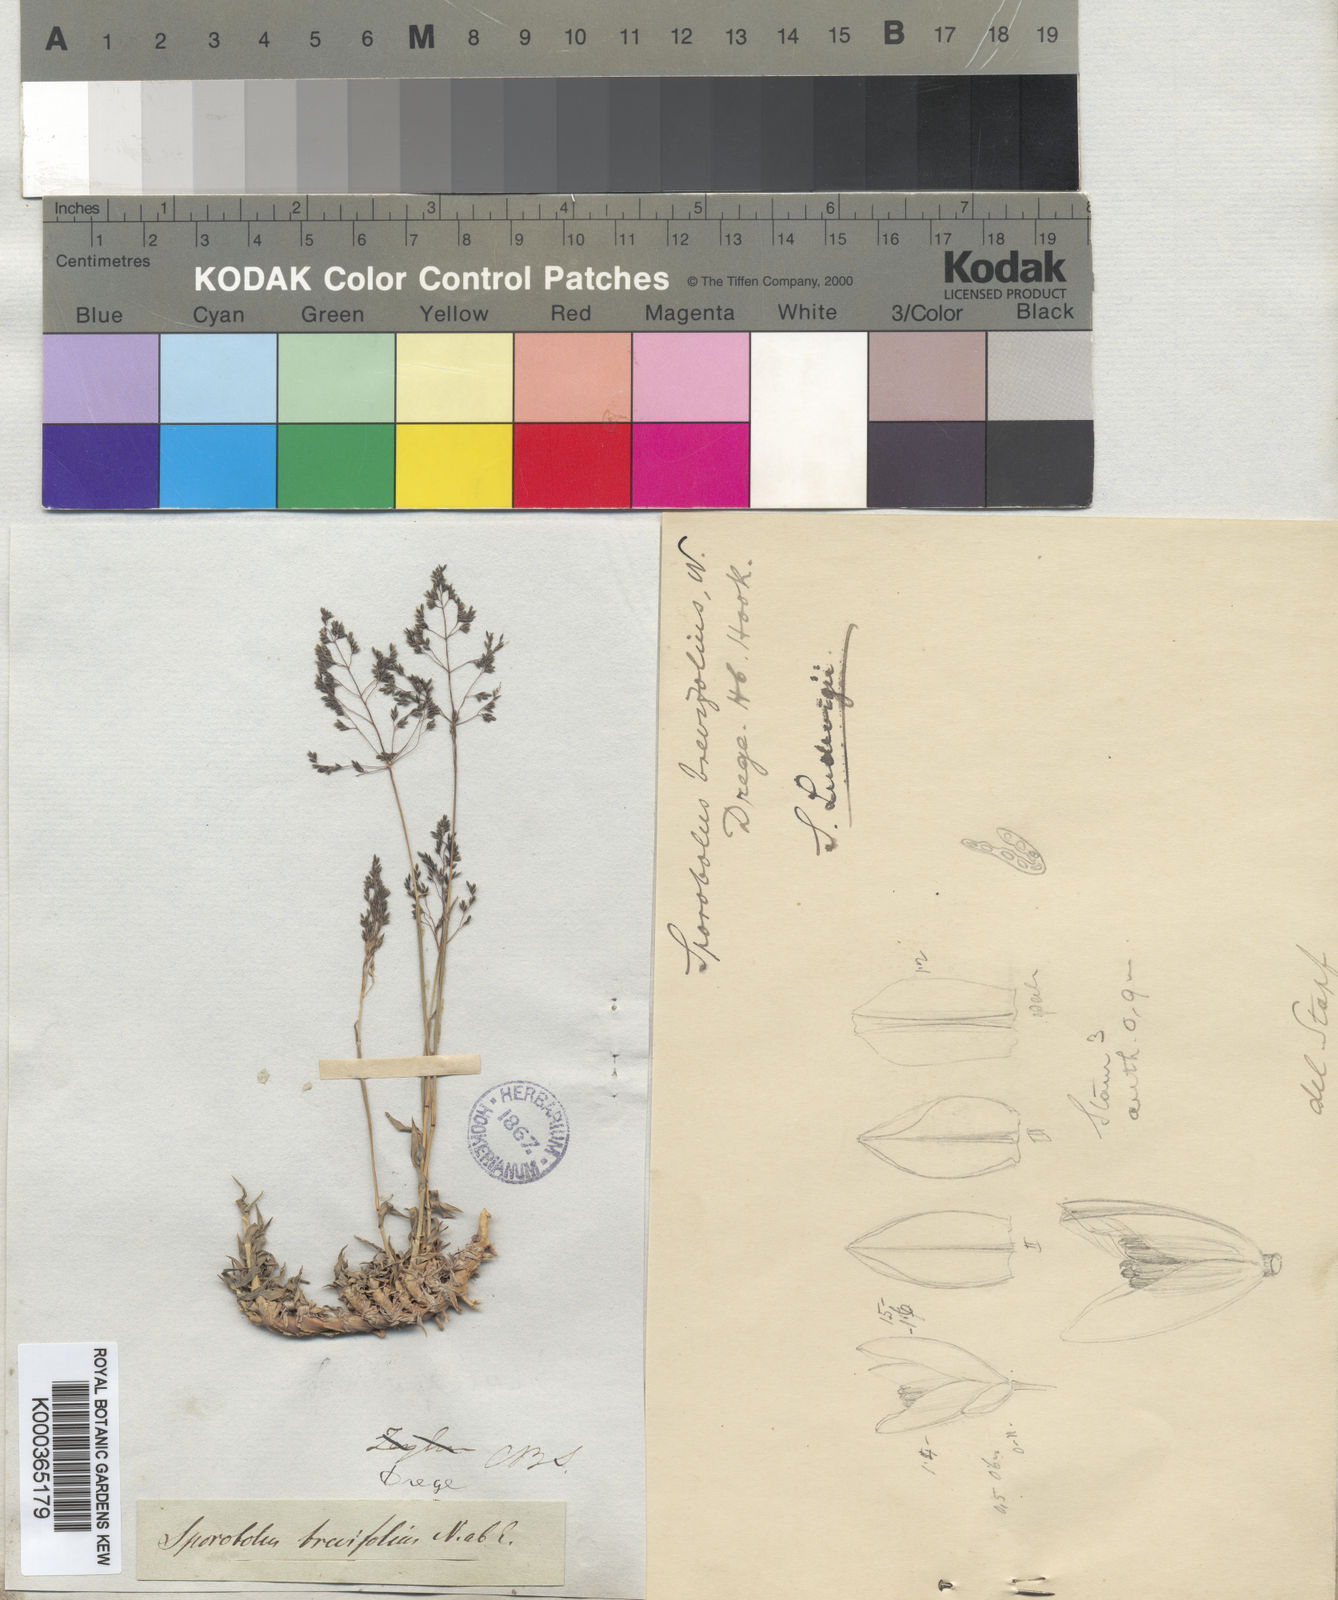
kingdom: Plantae
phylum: Tracheophyta
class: Liliopsida
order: Poales
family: Poaceae
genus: Sporobolus
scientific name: Sporobolus ludwigii
